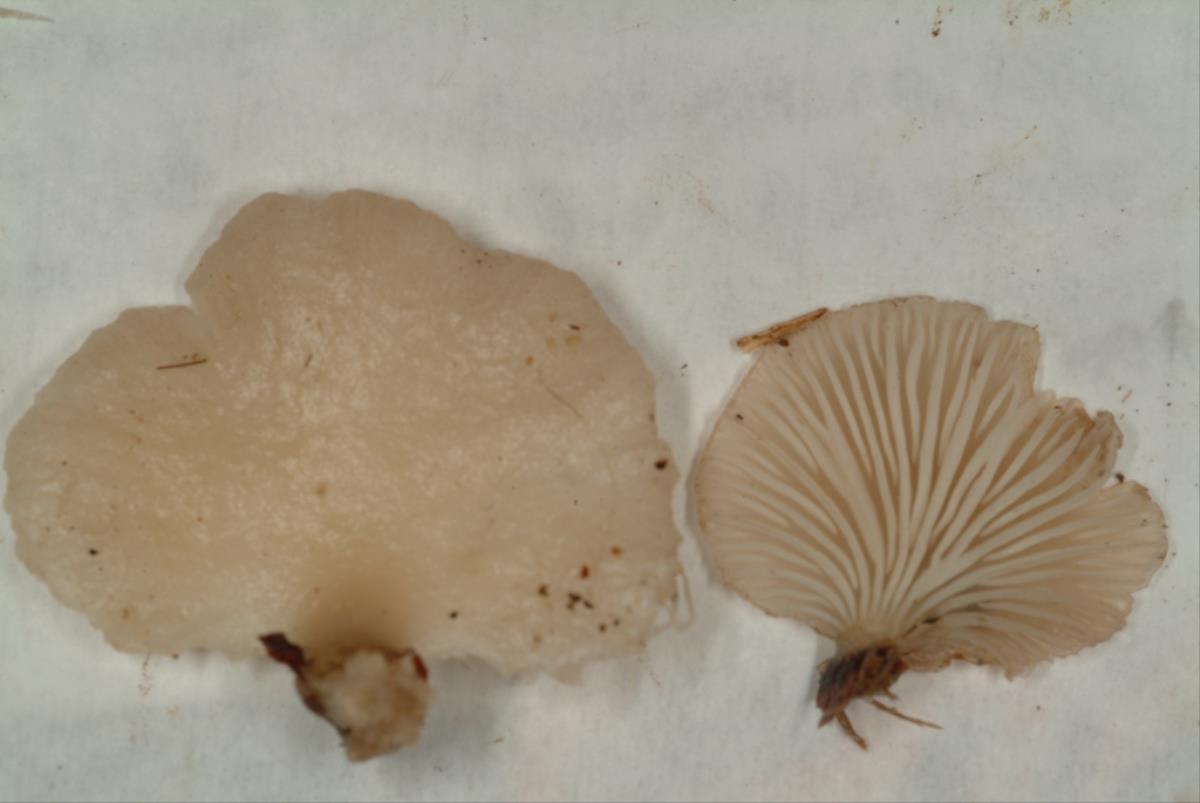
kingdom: Fungi
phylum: Basidiomycota
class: Agaricomycetes
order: Agaricales
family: Pleurotaceae
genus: Pleurotus
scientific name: Pleurotus djamor
